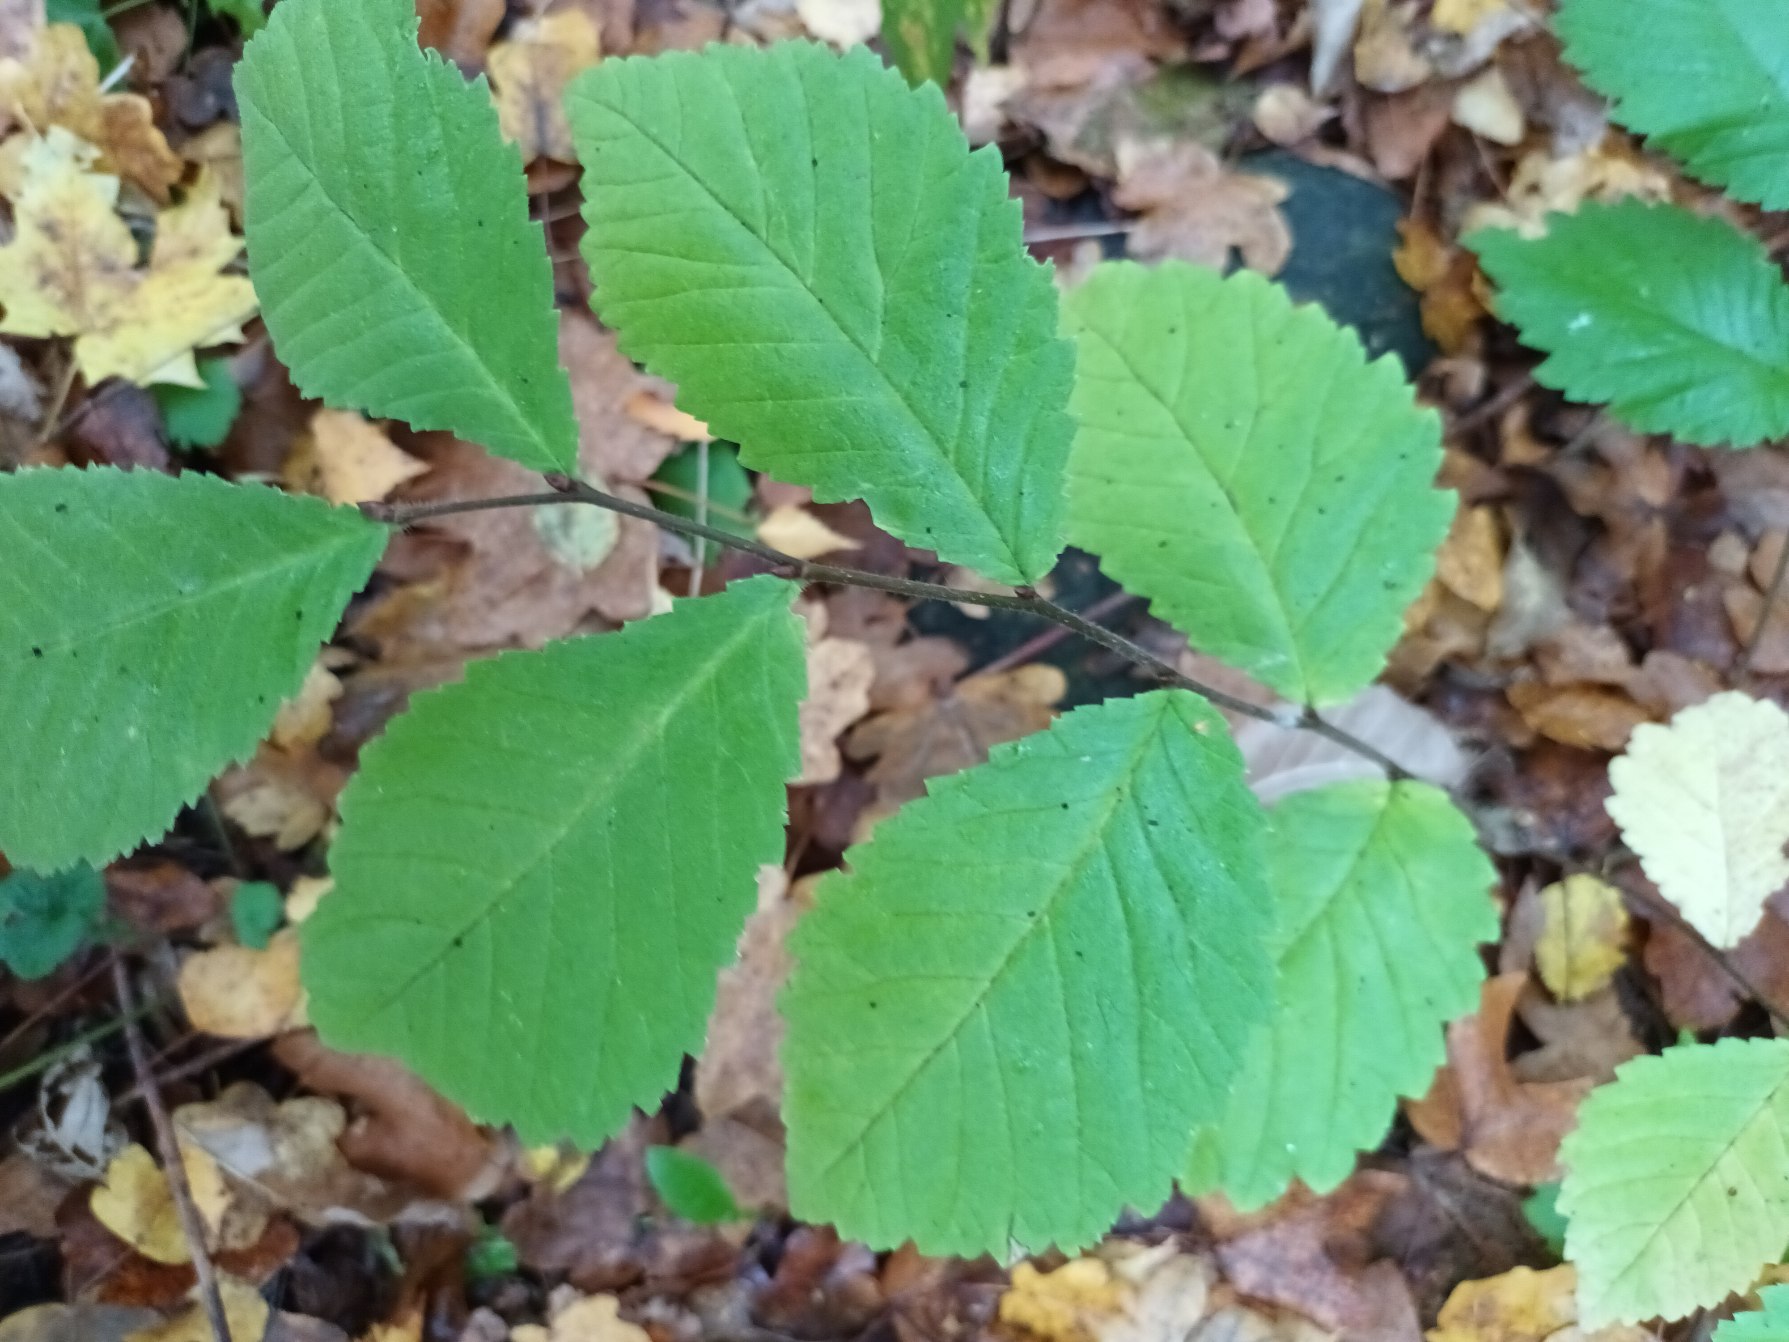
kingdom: Plantae
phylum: Tracheophyta
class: Magnoliopsida
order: Rosales
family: Ulmaceae
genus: Ulmus
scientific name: Ulmus glabra
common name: Skov-elm/storbladet elm
